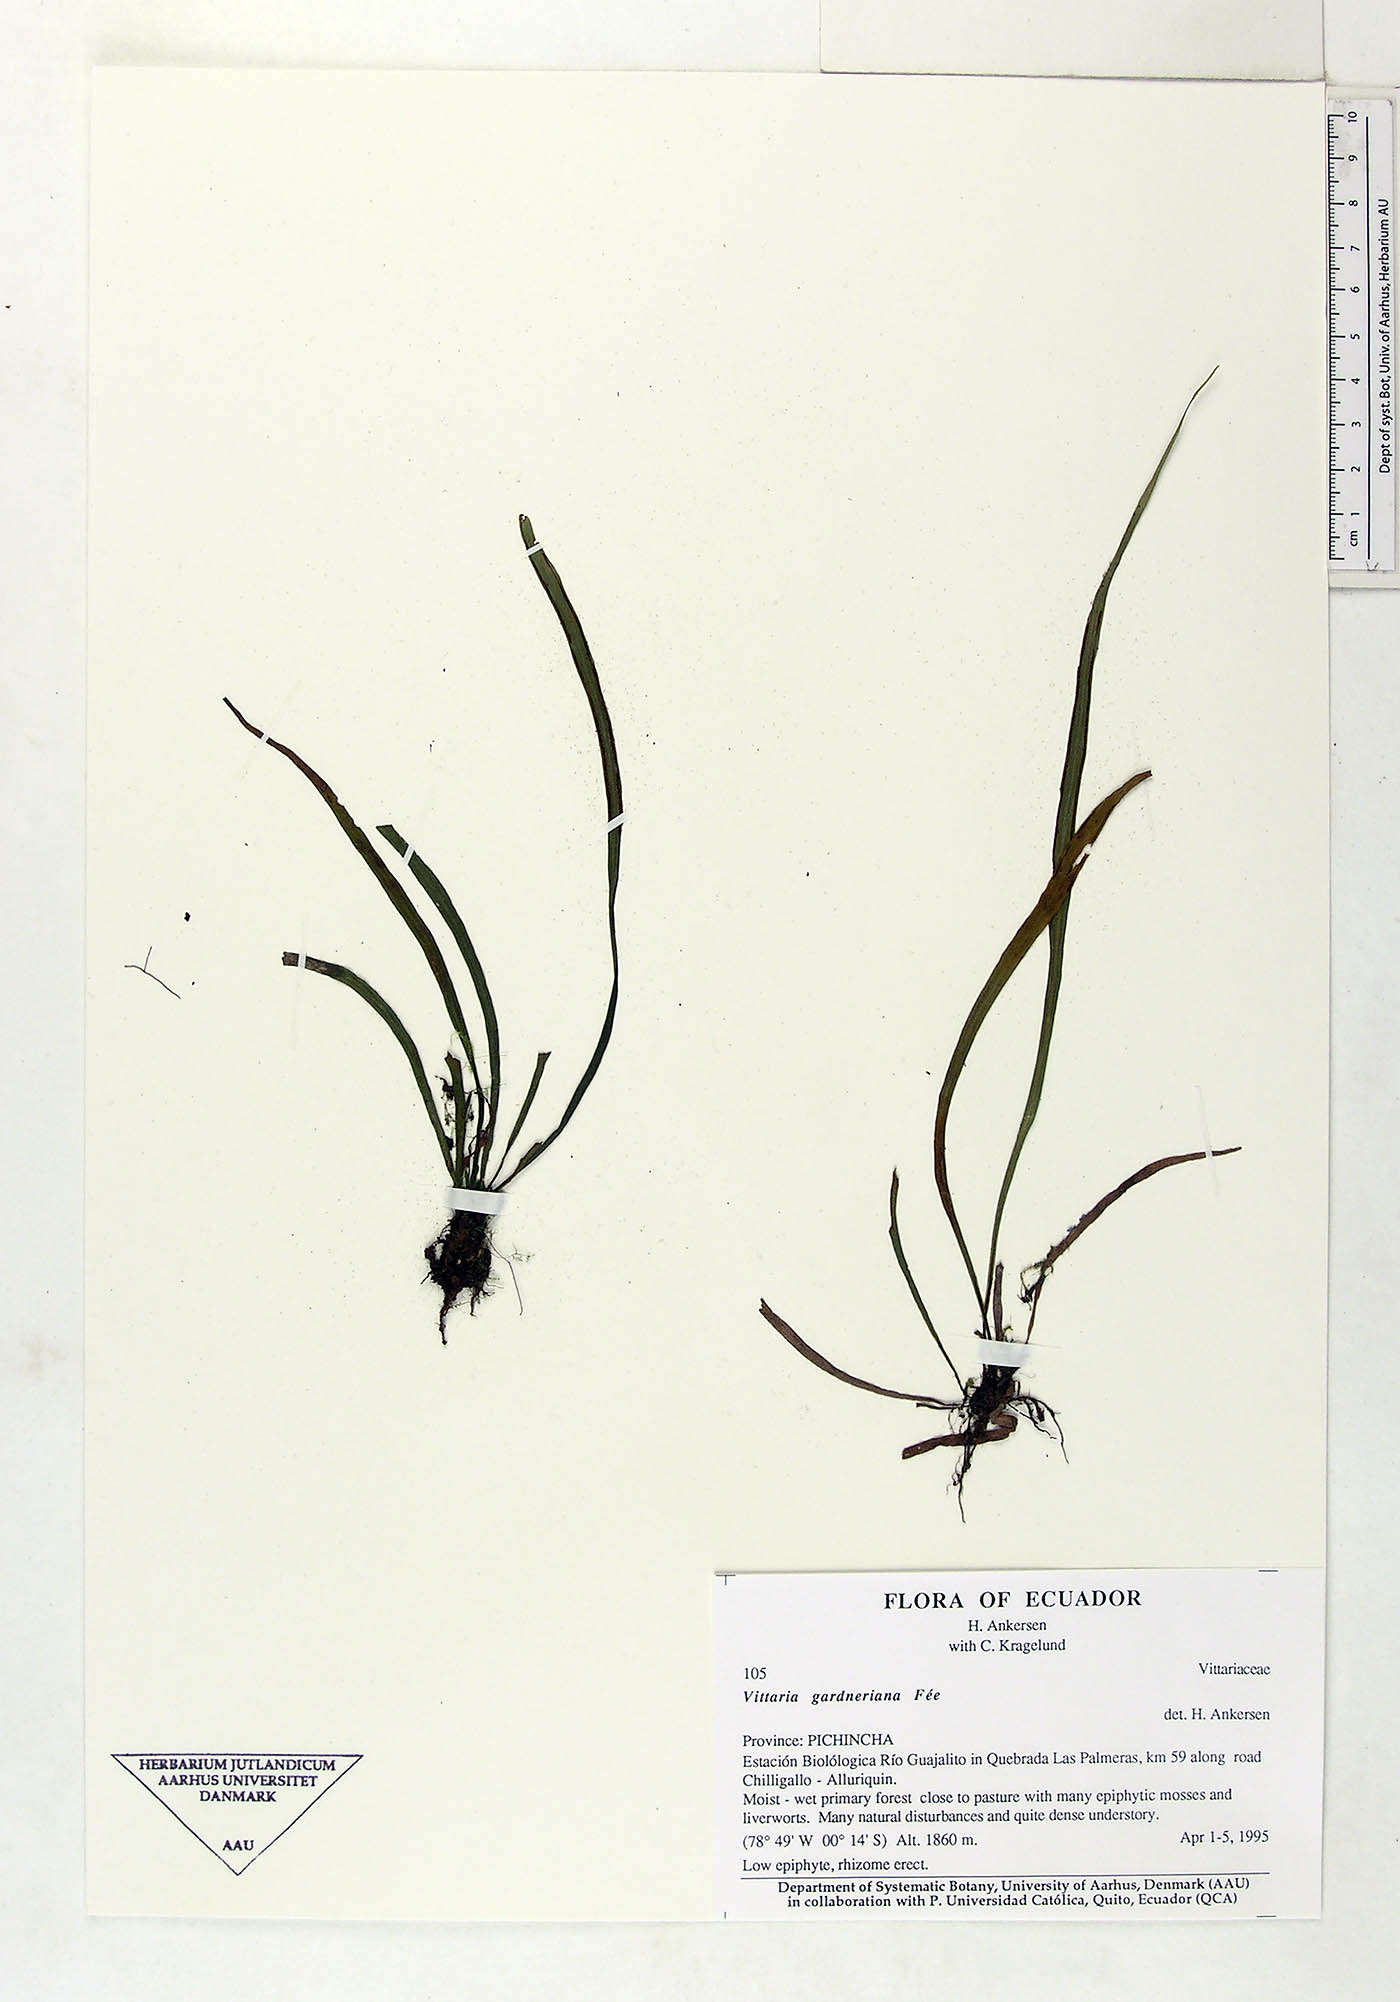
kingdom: Plantae
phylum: Tracheophyta
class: Polypodiopsida
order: Polypodiales
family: Pteridaceae
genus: Radiovittaria
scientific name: Radiovittaria gardneriana
